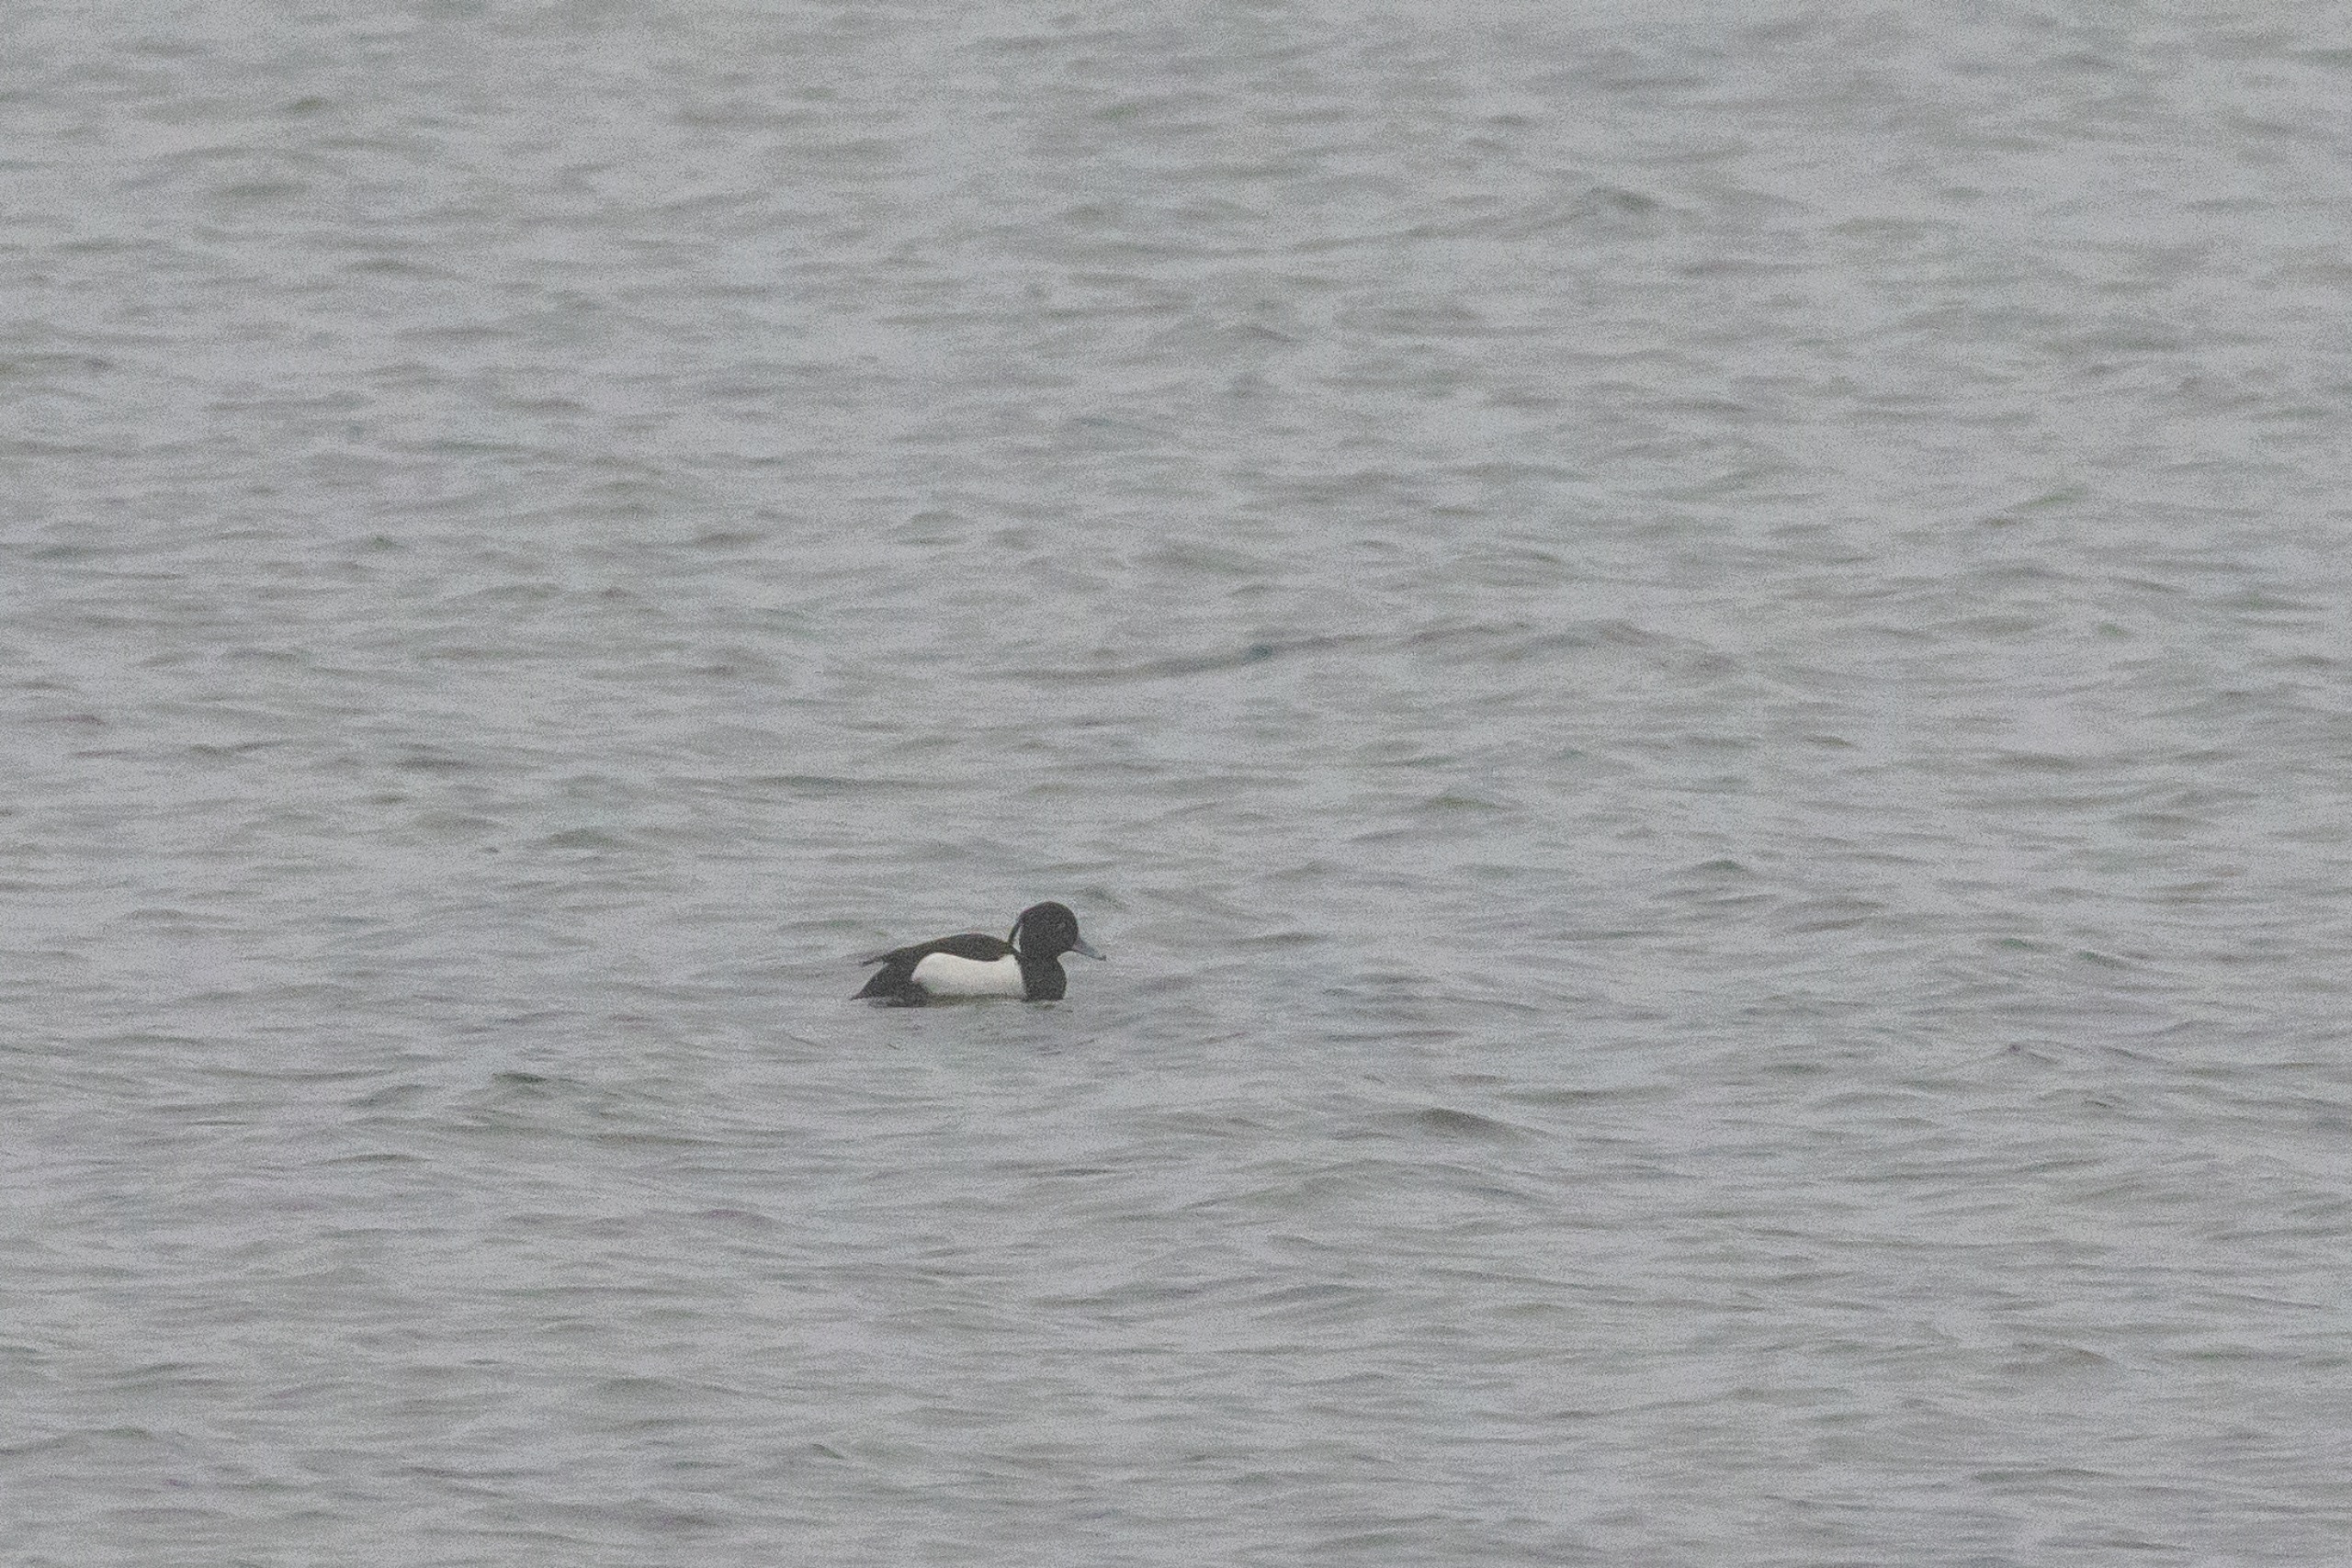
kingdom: Animalia
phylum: Chordata
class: Aves
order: Anseriformes
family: Anatidae
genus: Aythya
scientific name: Aythya fuligula
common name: Troldand
